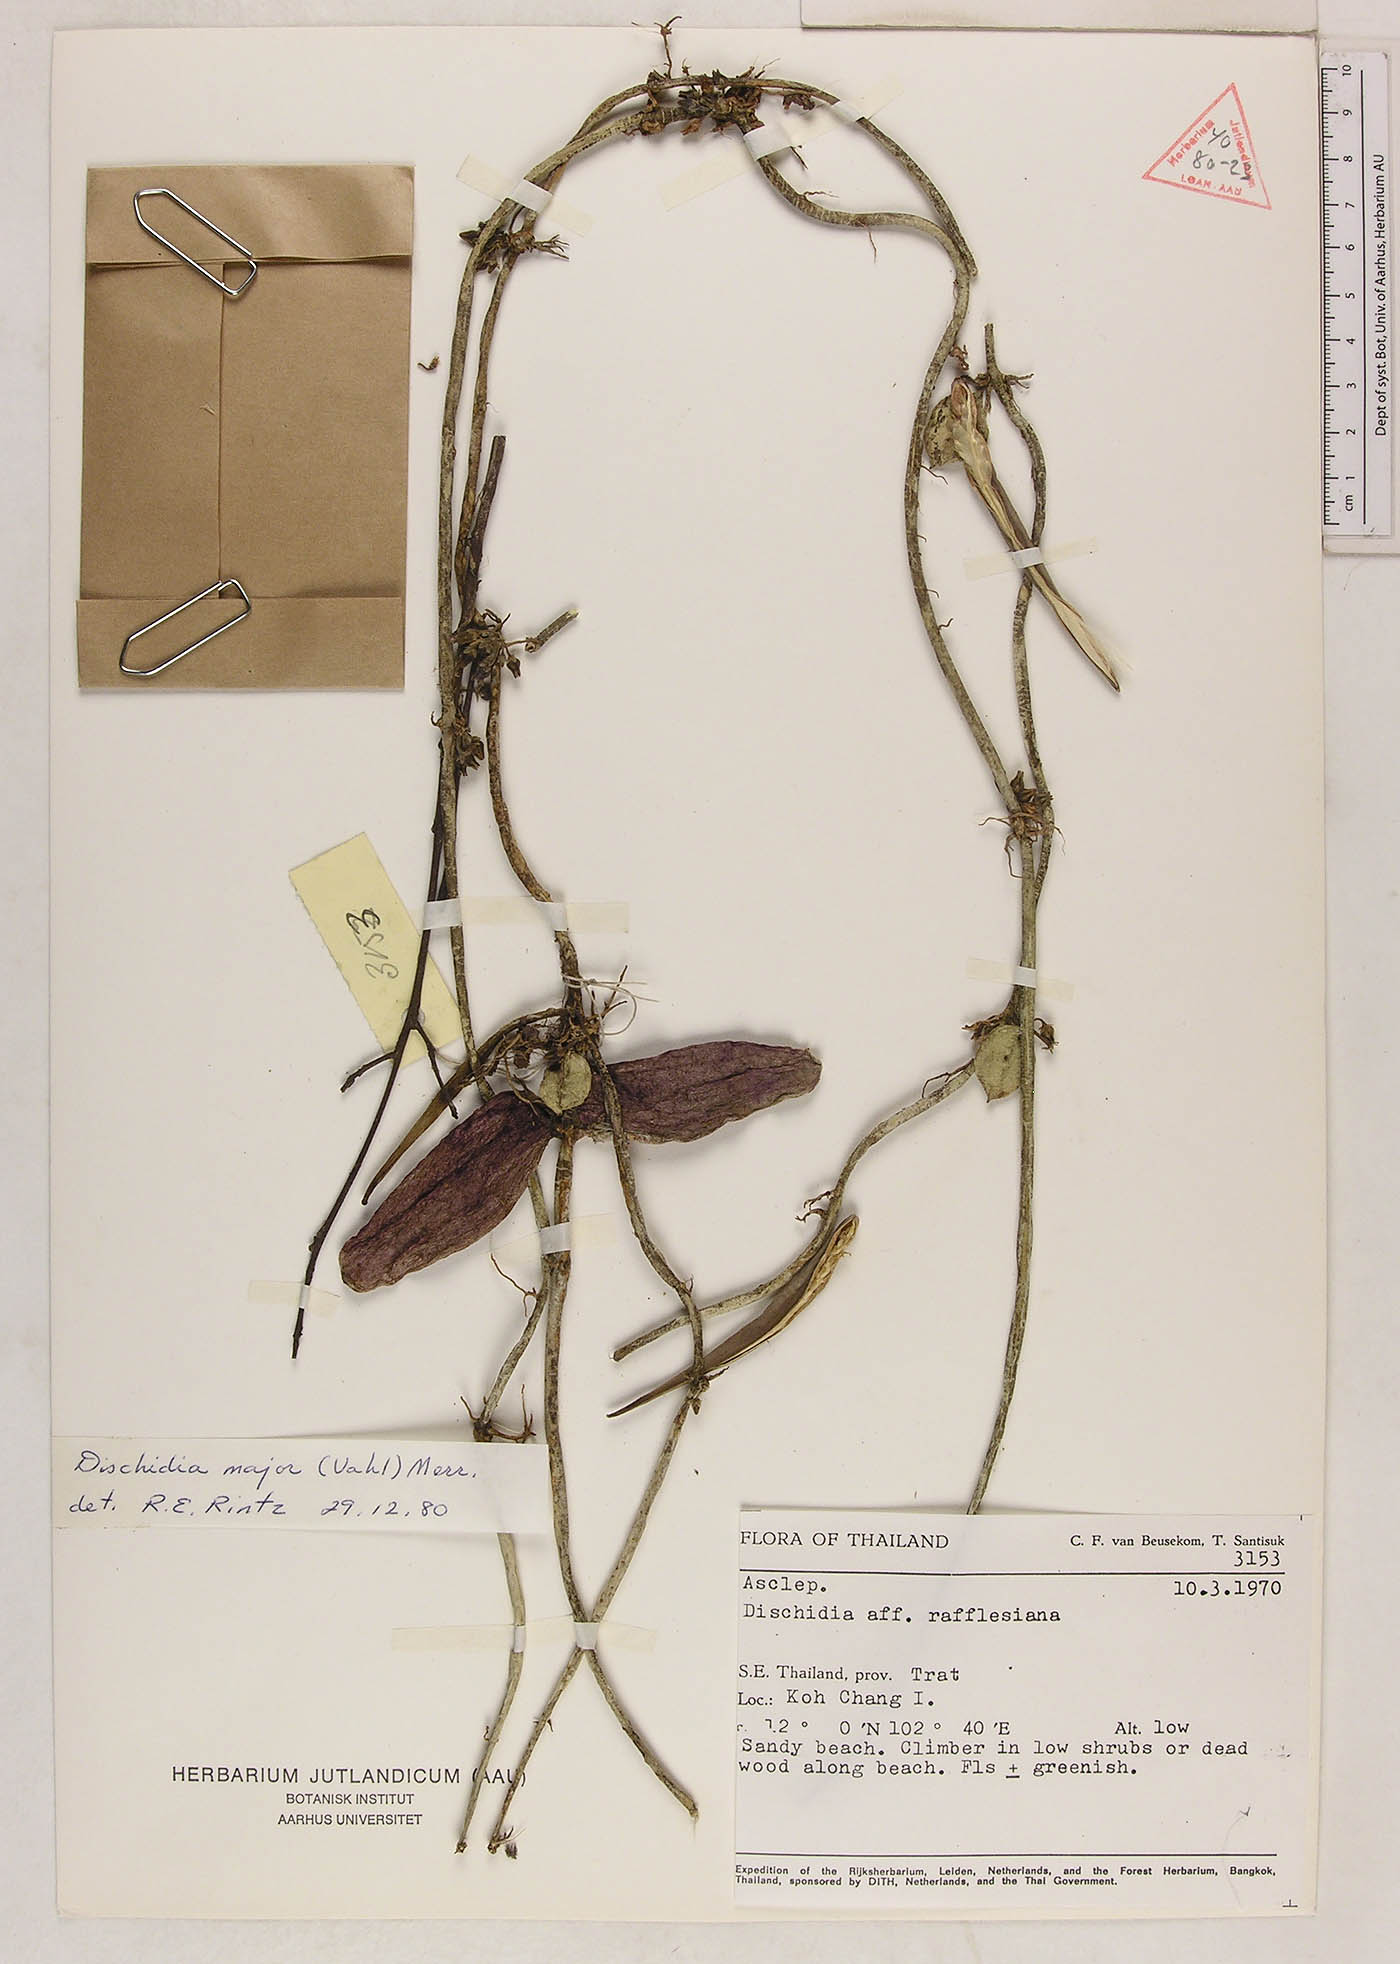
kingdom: Plantae
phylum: Tracheophyta
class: Magnoliopsida
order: Gentianales
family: Apocynaceae
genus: Dischidia
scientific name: Dischidia major
